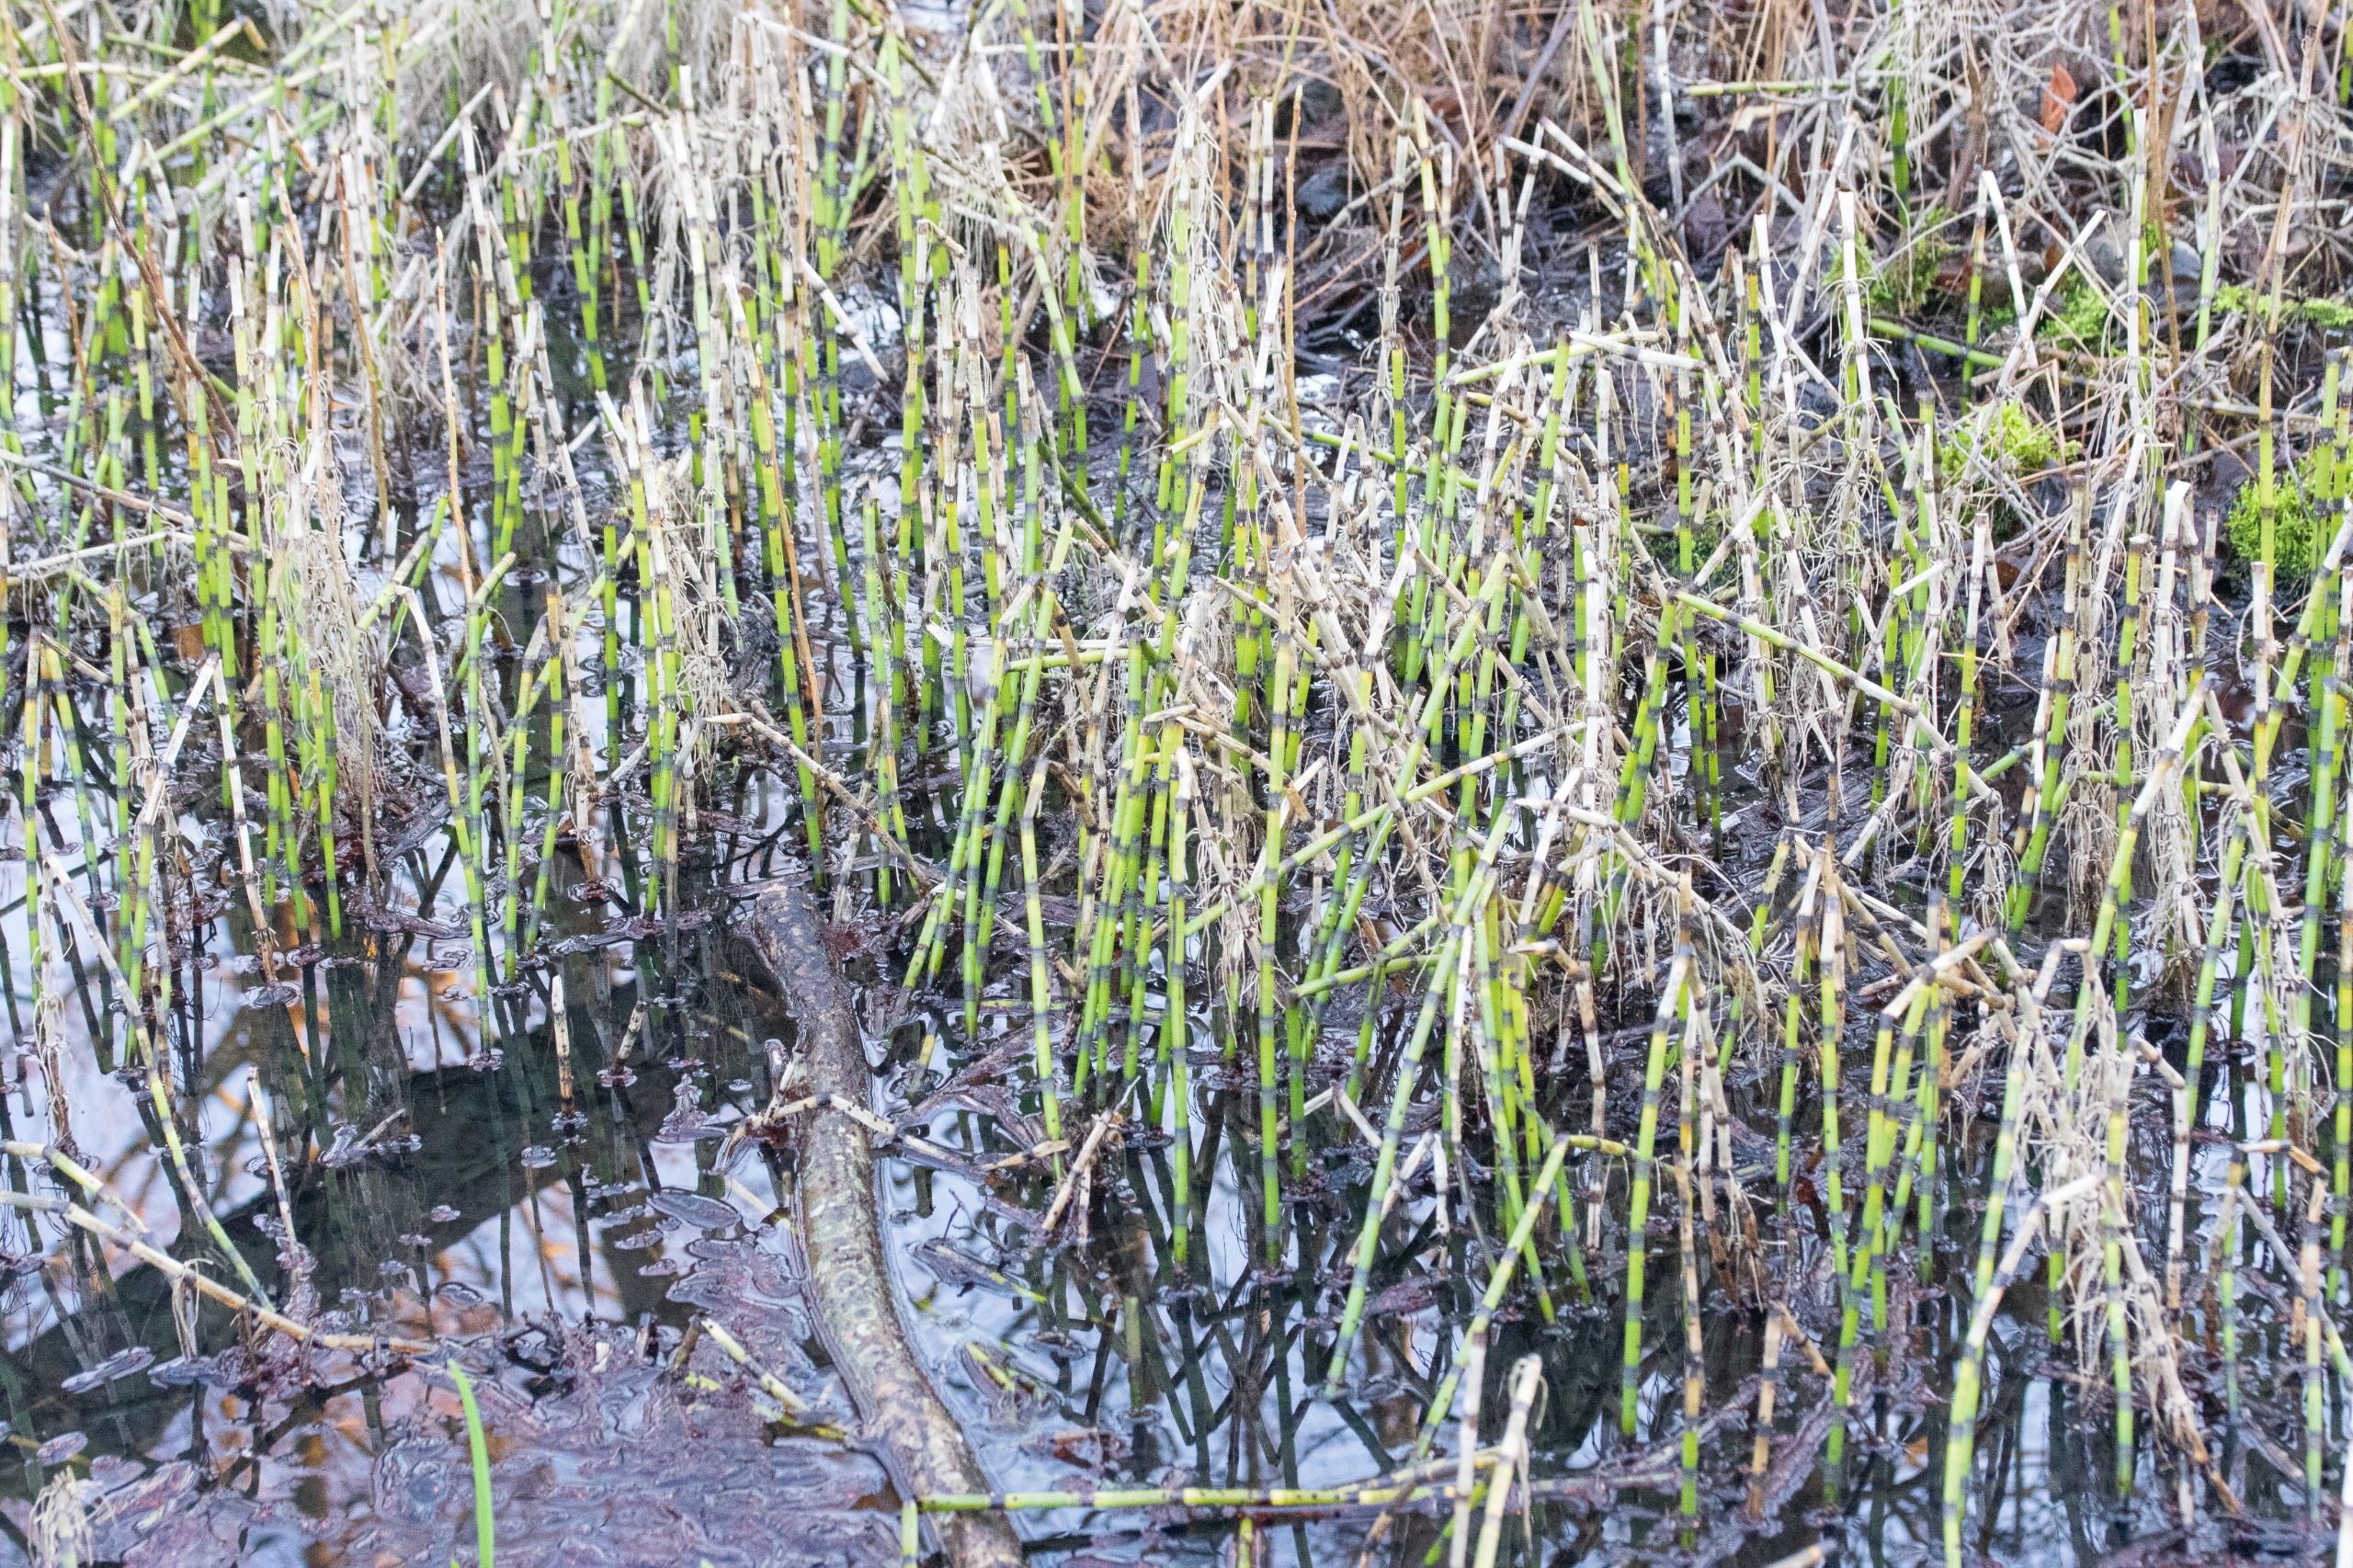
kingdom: Plantae
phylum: Tracheophyta
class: Polypodiopsida
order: Equisetales
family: Equisetaceae
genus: Equisetum
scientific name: Equisetum fluviatile
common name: Dynd-padderok
